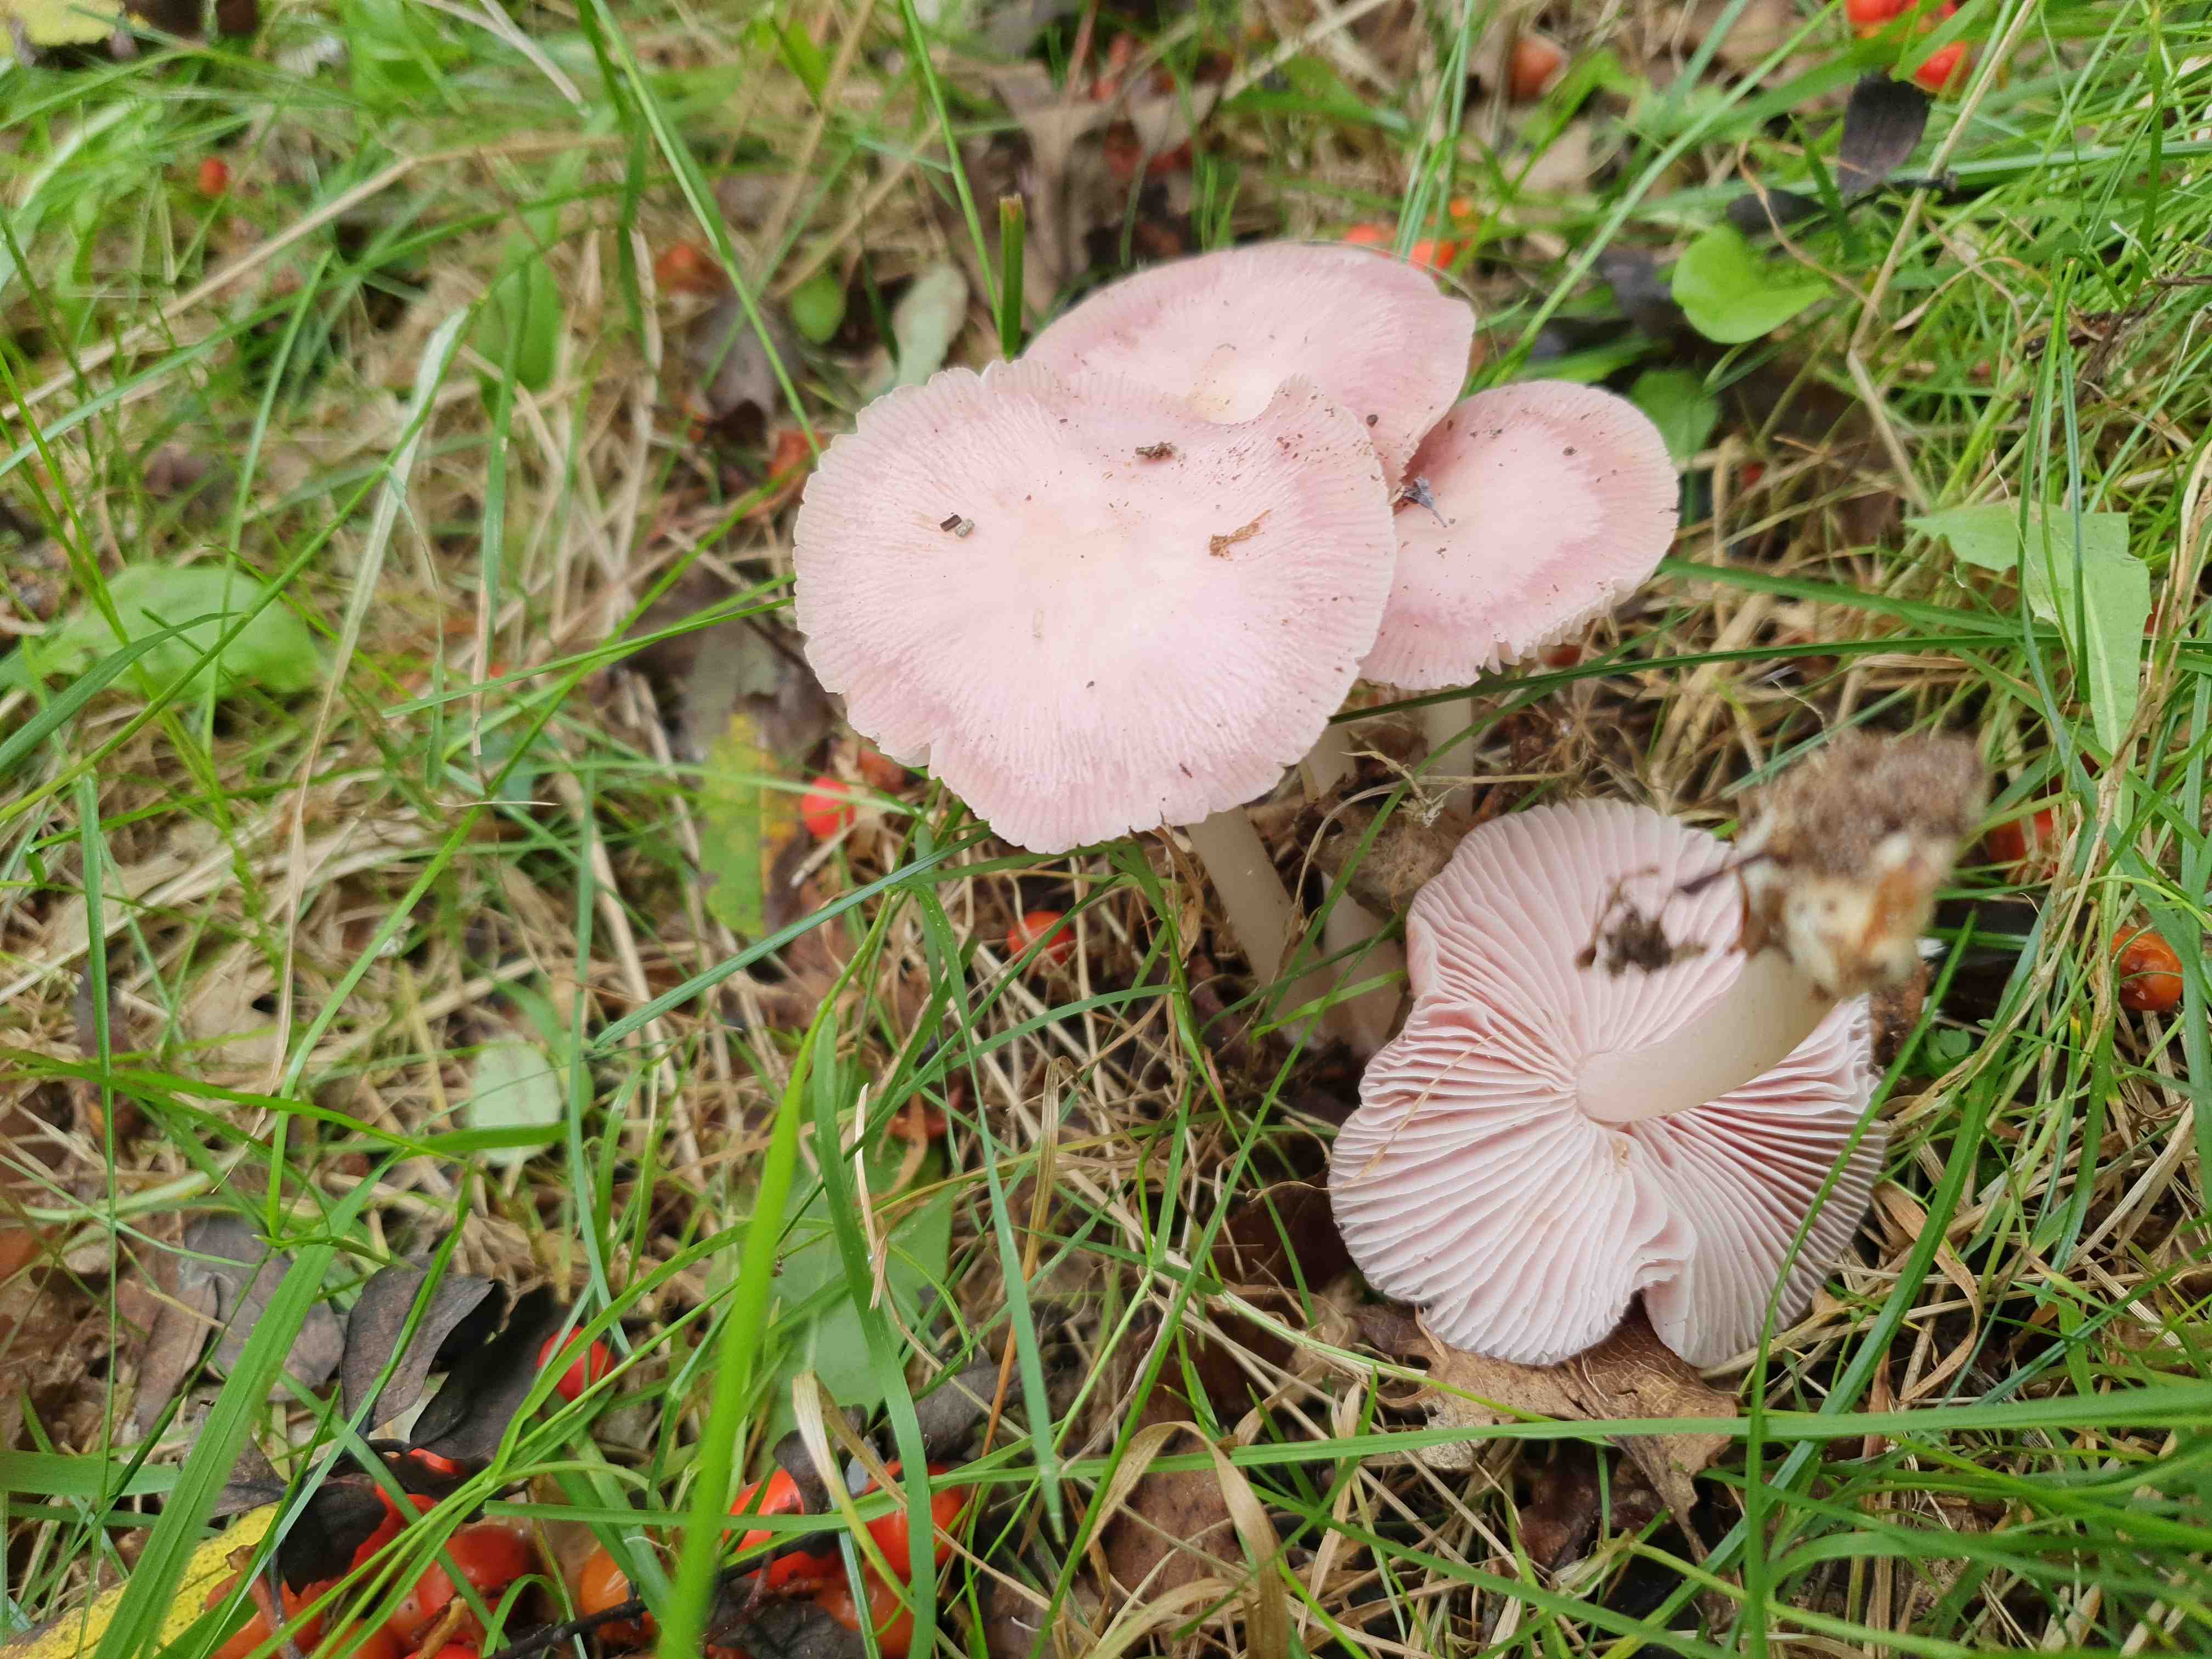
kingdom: Fungi
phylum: Basidiomycota
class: Agaricomycetes
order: Agaricales
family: Mycenaceae
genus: Mycena
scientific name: Mycena rosea
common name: rosa huesvamp
